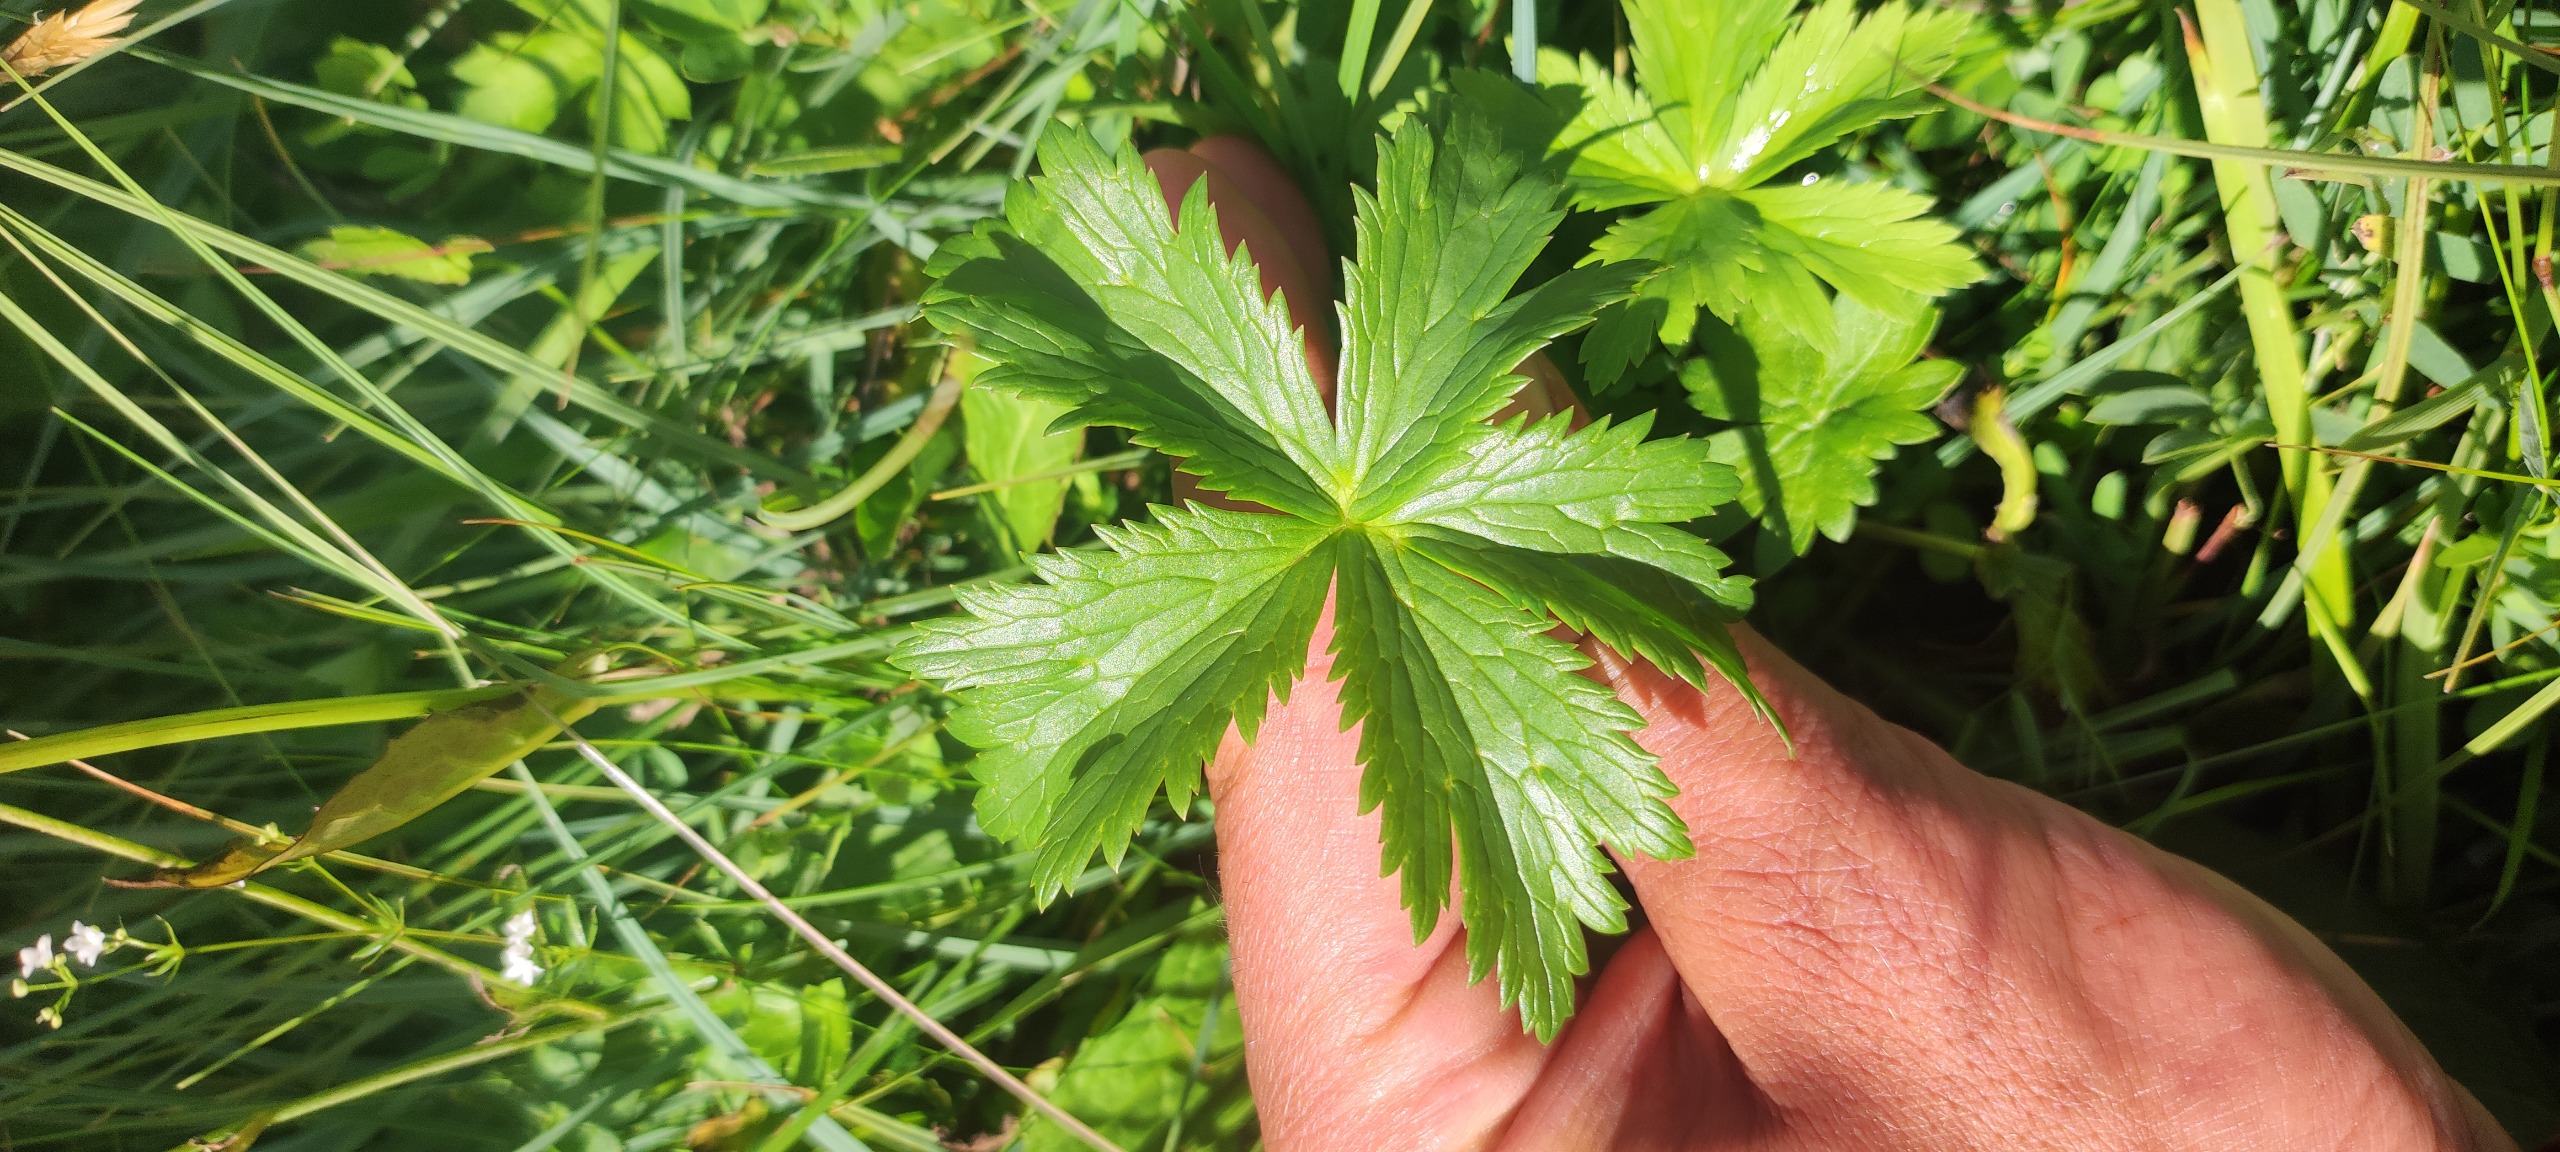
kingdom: Plantae
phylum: Tracheophyta
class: Magnoliopsida
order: Ranunculales
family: Ranunculaceae
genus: Trollius
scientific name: Trollius europaeus
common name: Engblomme
